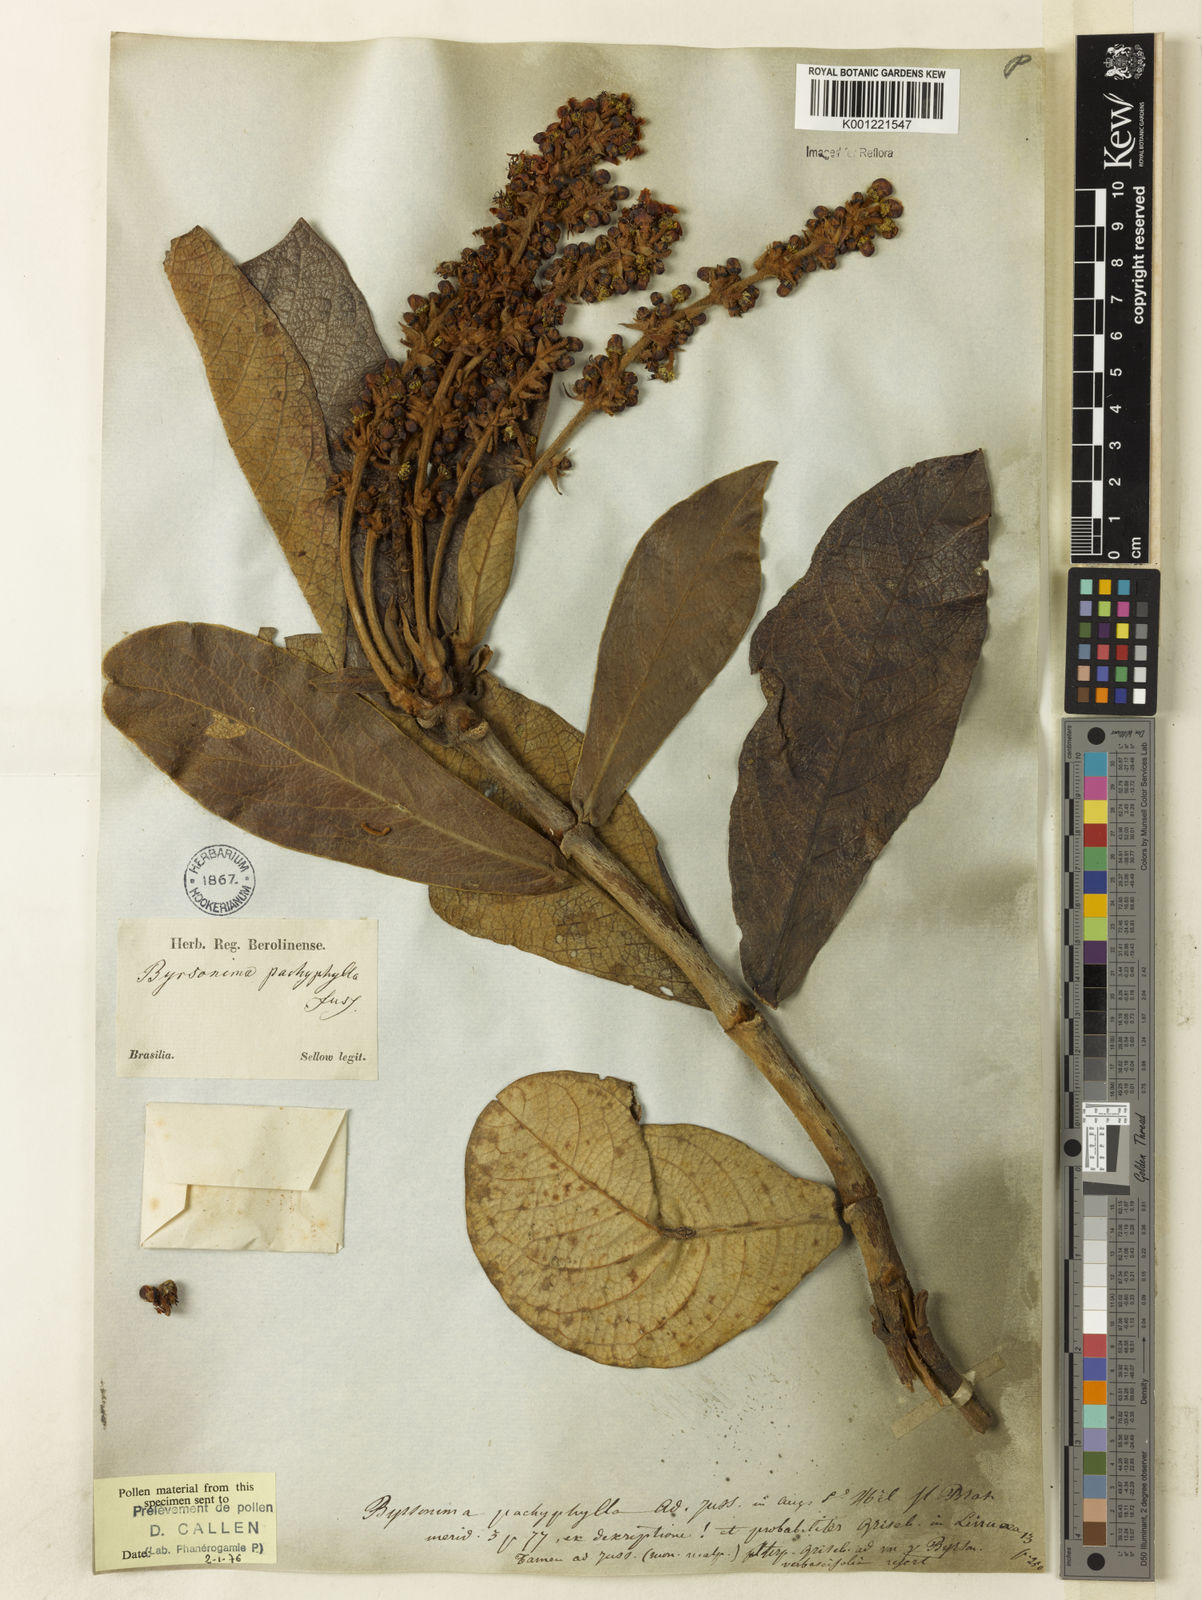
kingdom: Plantae
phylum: Tracheophyta
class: Magnoliopsida
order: Malpighiales
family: Malpighiaceae
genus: Byrsonima
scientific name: Byrsonima pachyphylla
